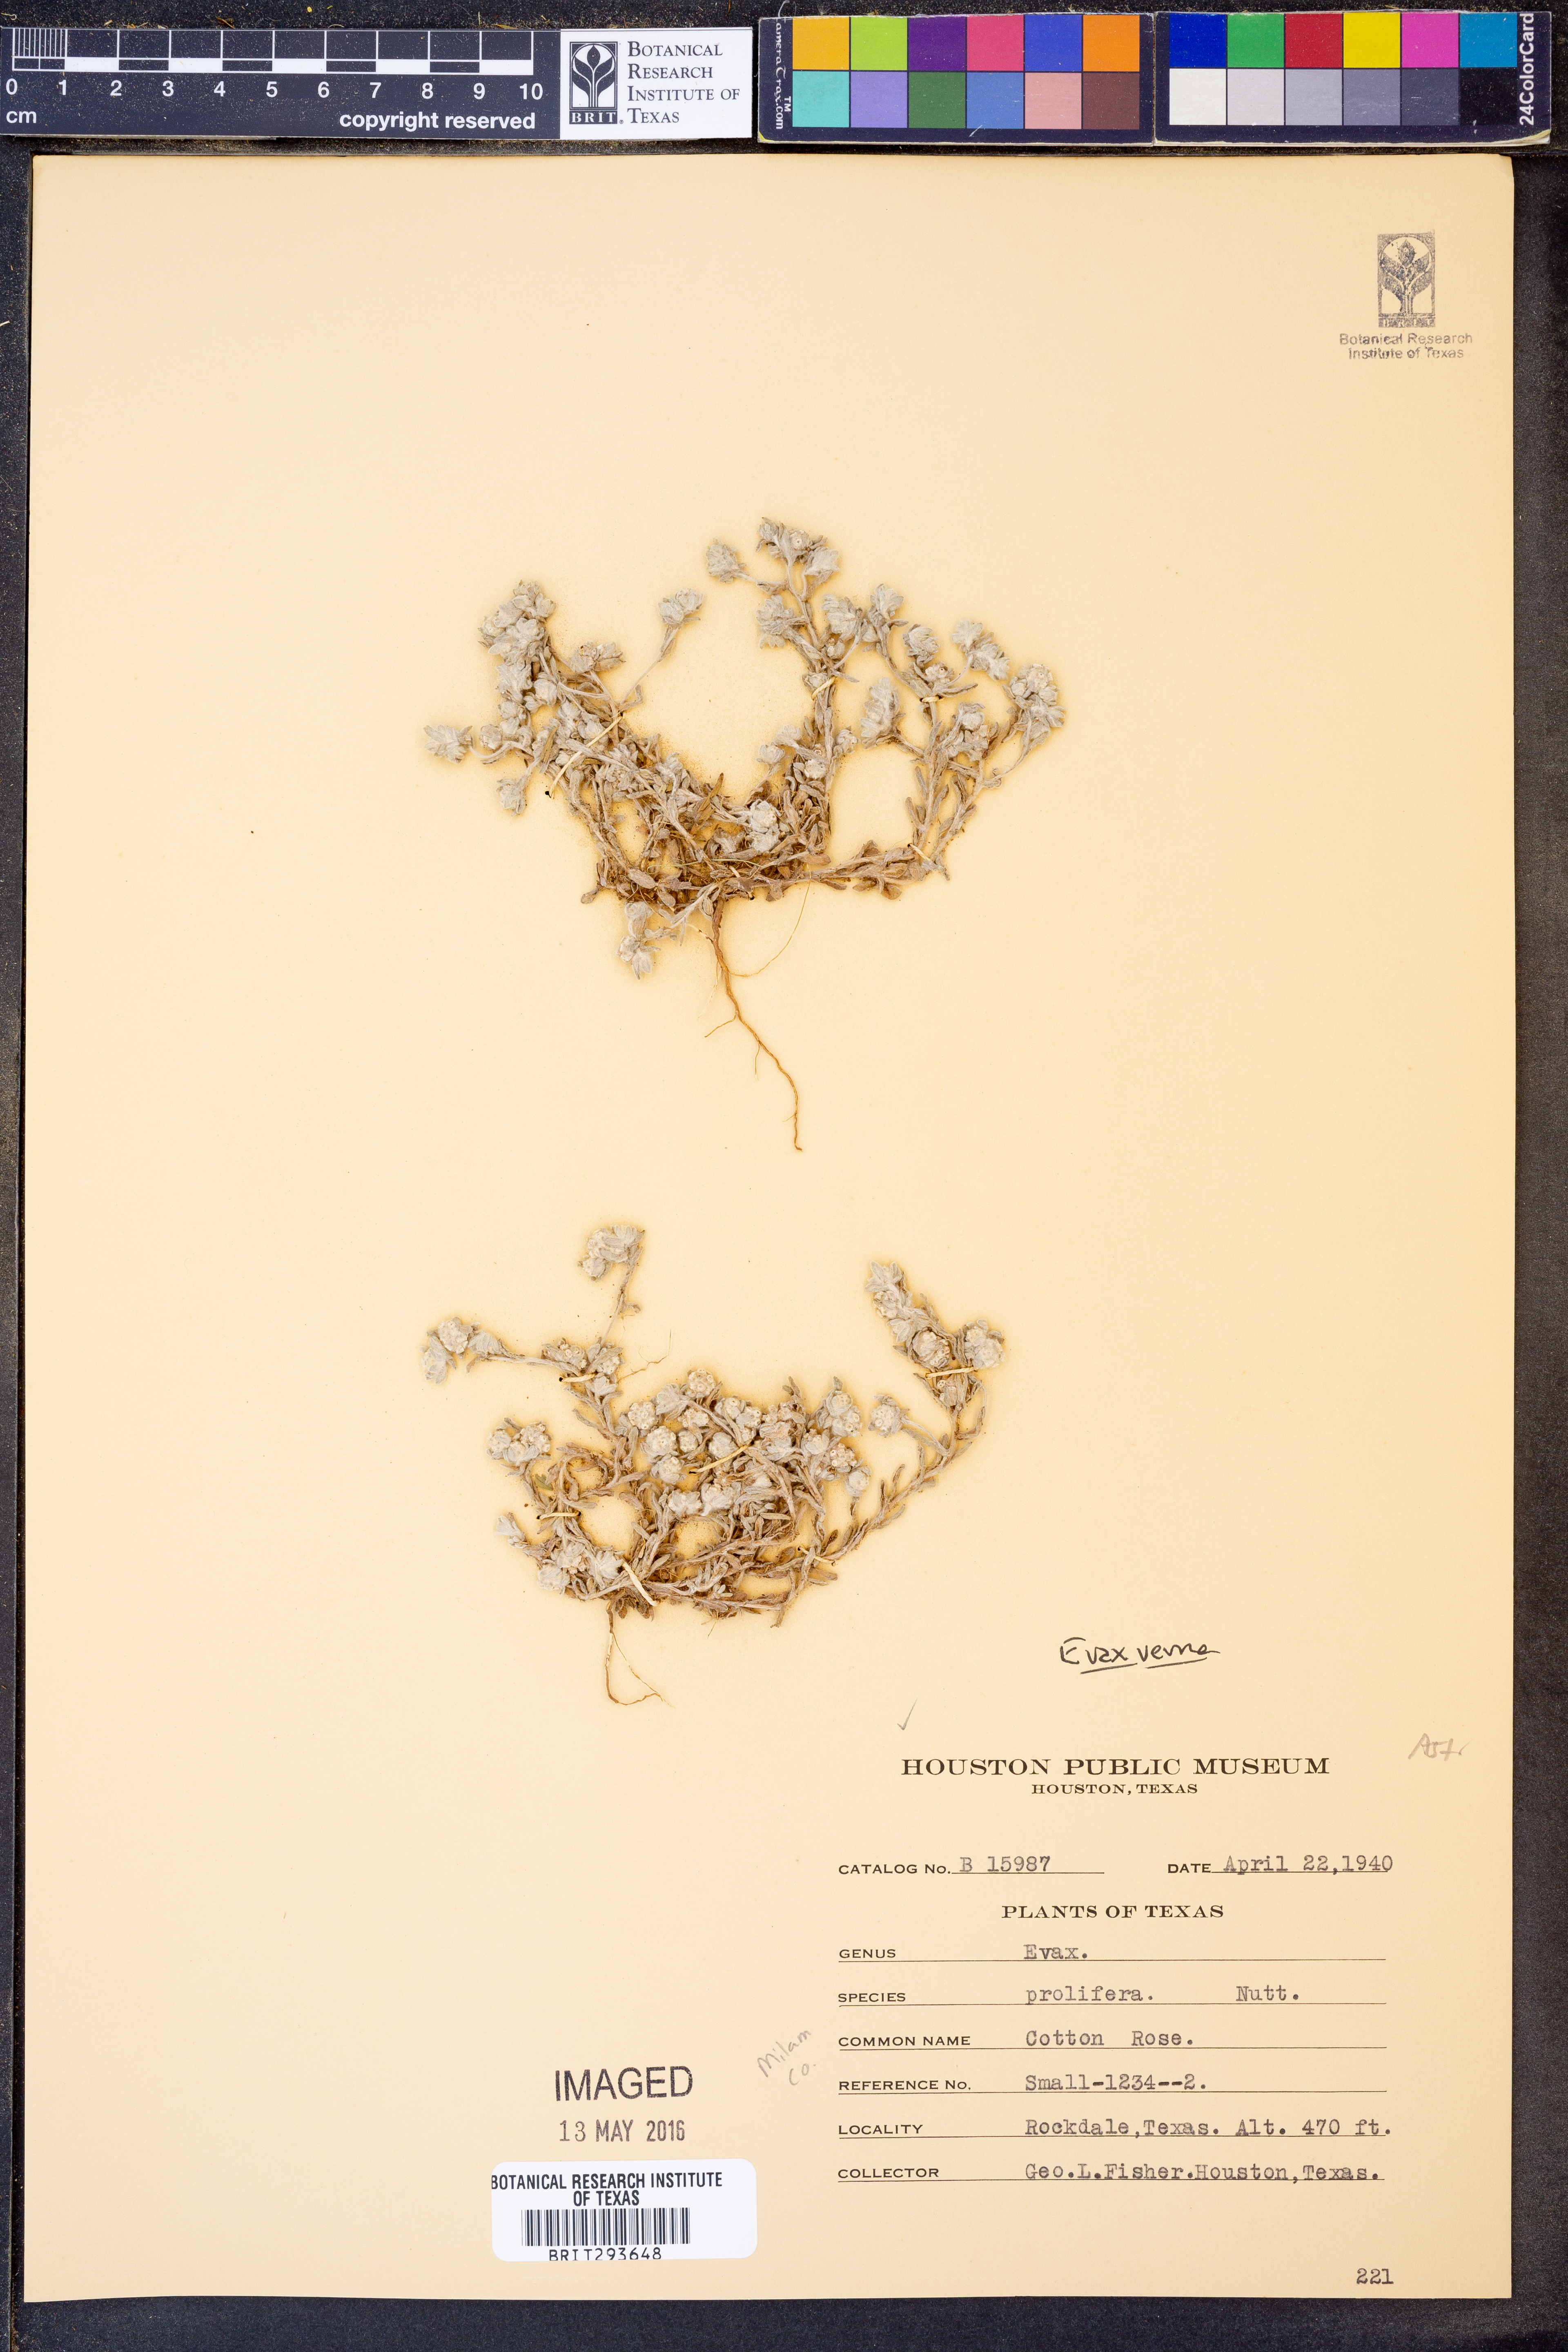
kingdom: Plantae
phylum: Tracheophyta
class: Magnoliopsida
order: Asterales
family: Asteraceae
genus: Diaperia
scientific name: Diaperia verna
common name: Many-stem rabbit-tobacco
